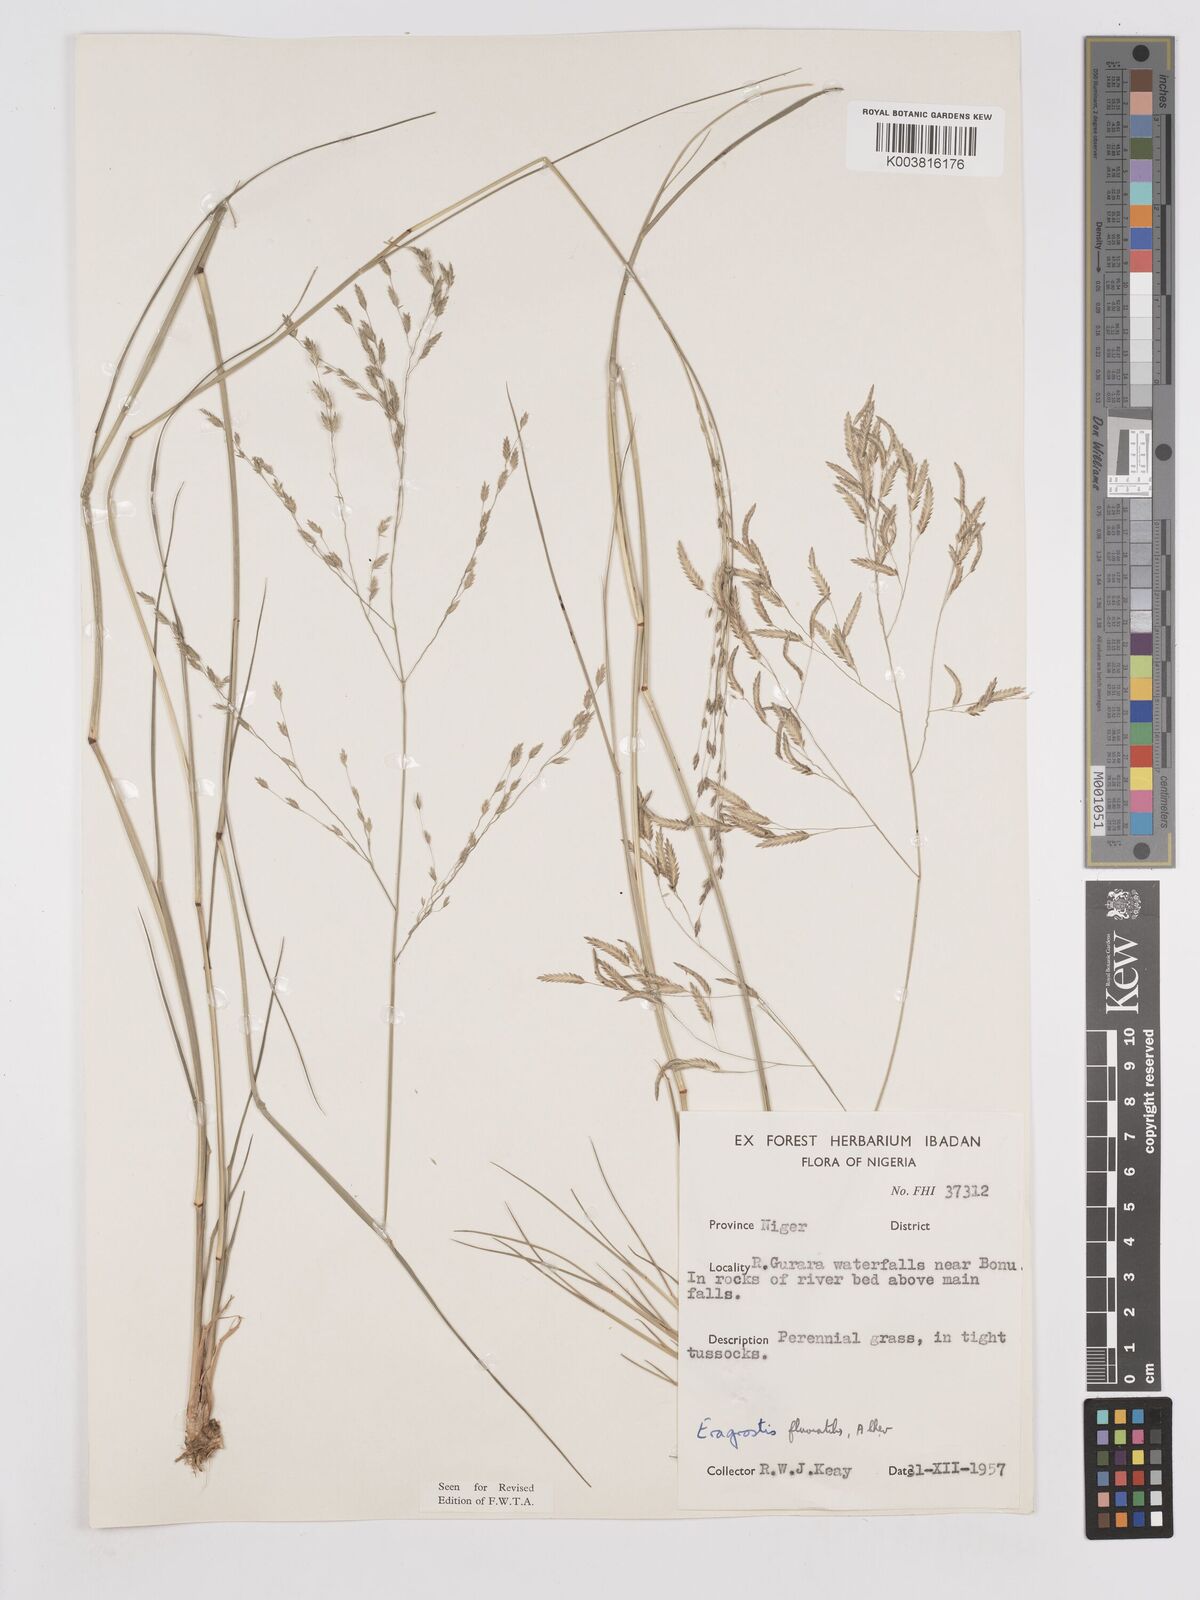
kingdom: Plantae
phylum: Tracheophyta
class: Liliopsida
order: Poales
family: Poaceae
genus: Eragrostis
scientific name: Eragrostis barteri
